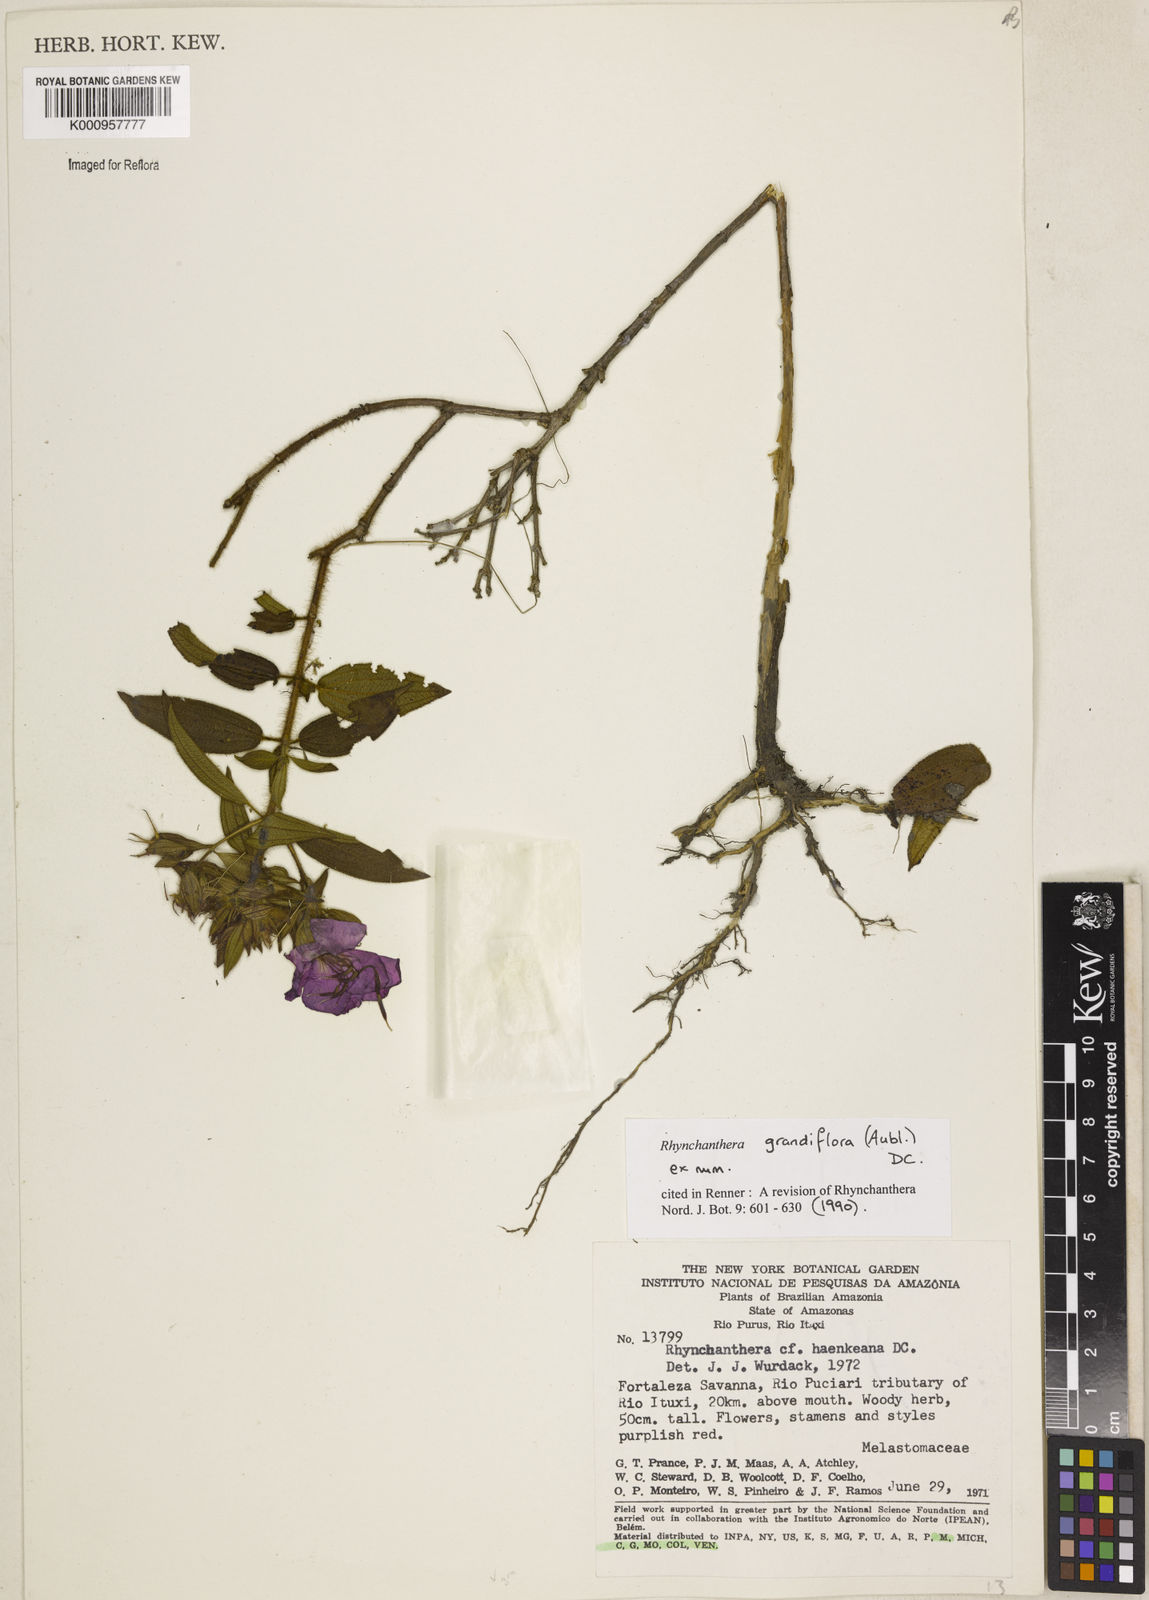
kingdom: Plantae
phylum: Tracheophyta
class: Magnoliopsida
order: Myrtales
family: Melastomataceae
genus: Rhynchanthera
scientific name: Rhynchanthera grandiflora
